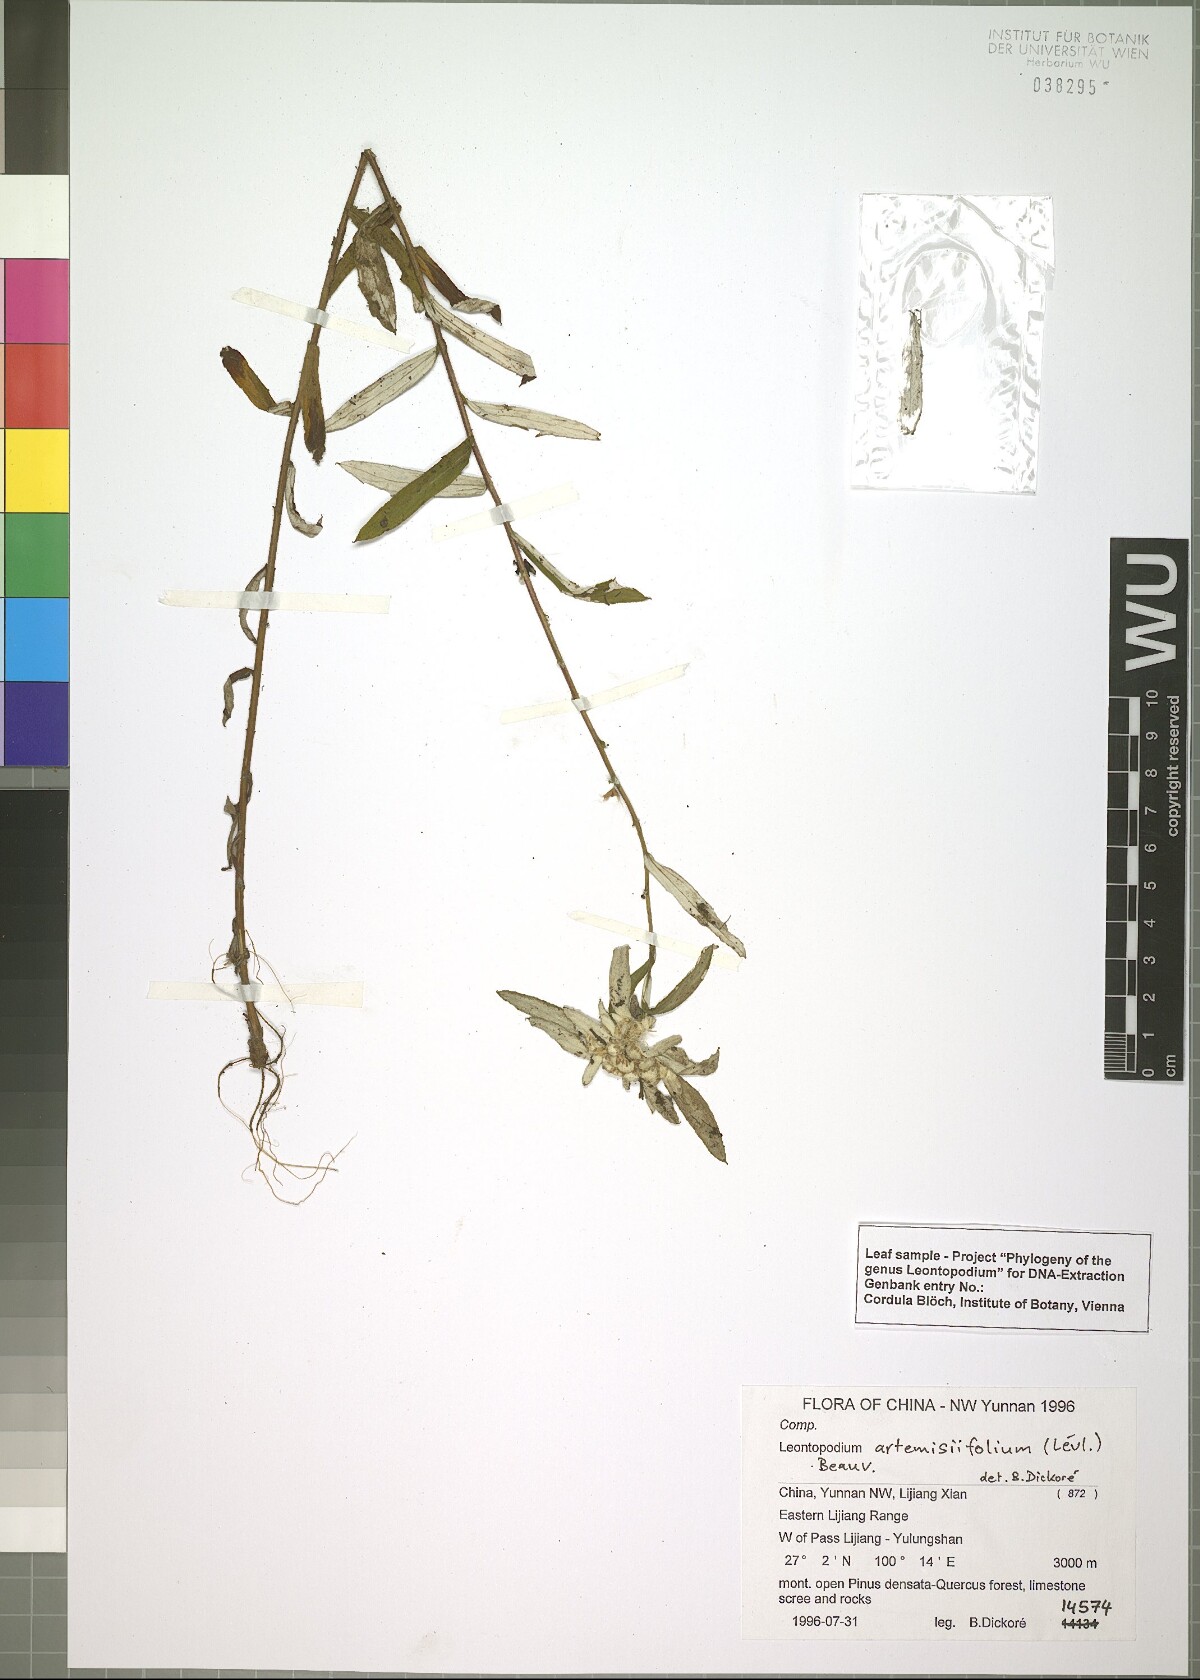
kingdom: Plantae
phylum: Tracheophyta
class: Magnoliopsida
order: Asterales
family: Asteraceae
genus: Leontopodium
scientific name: Leontopodium artemisiifolium
